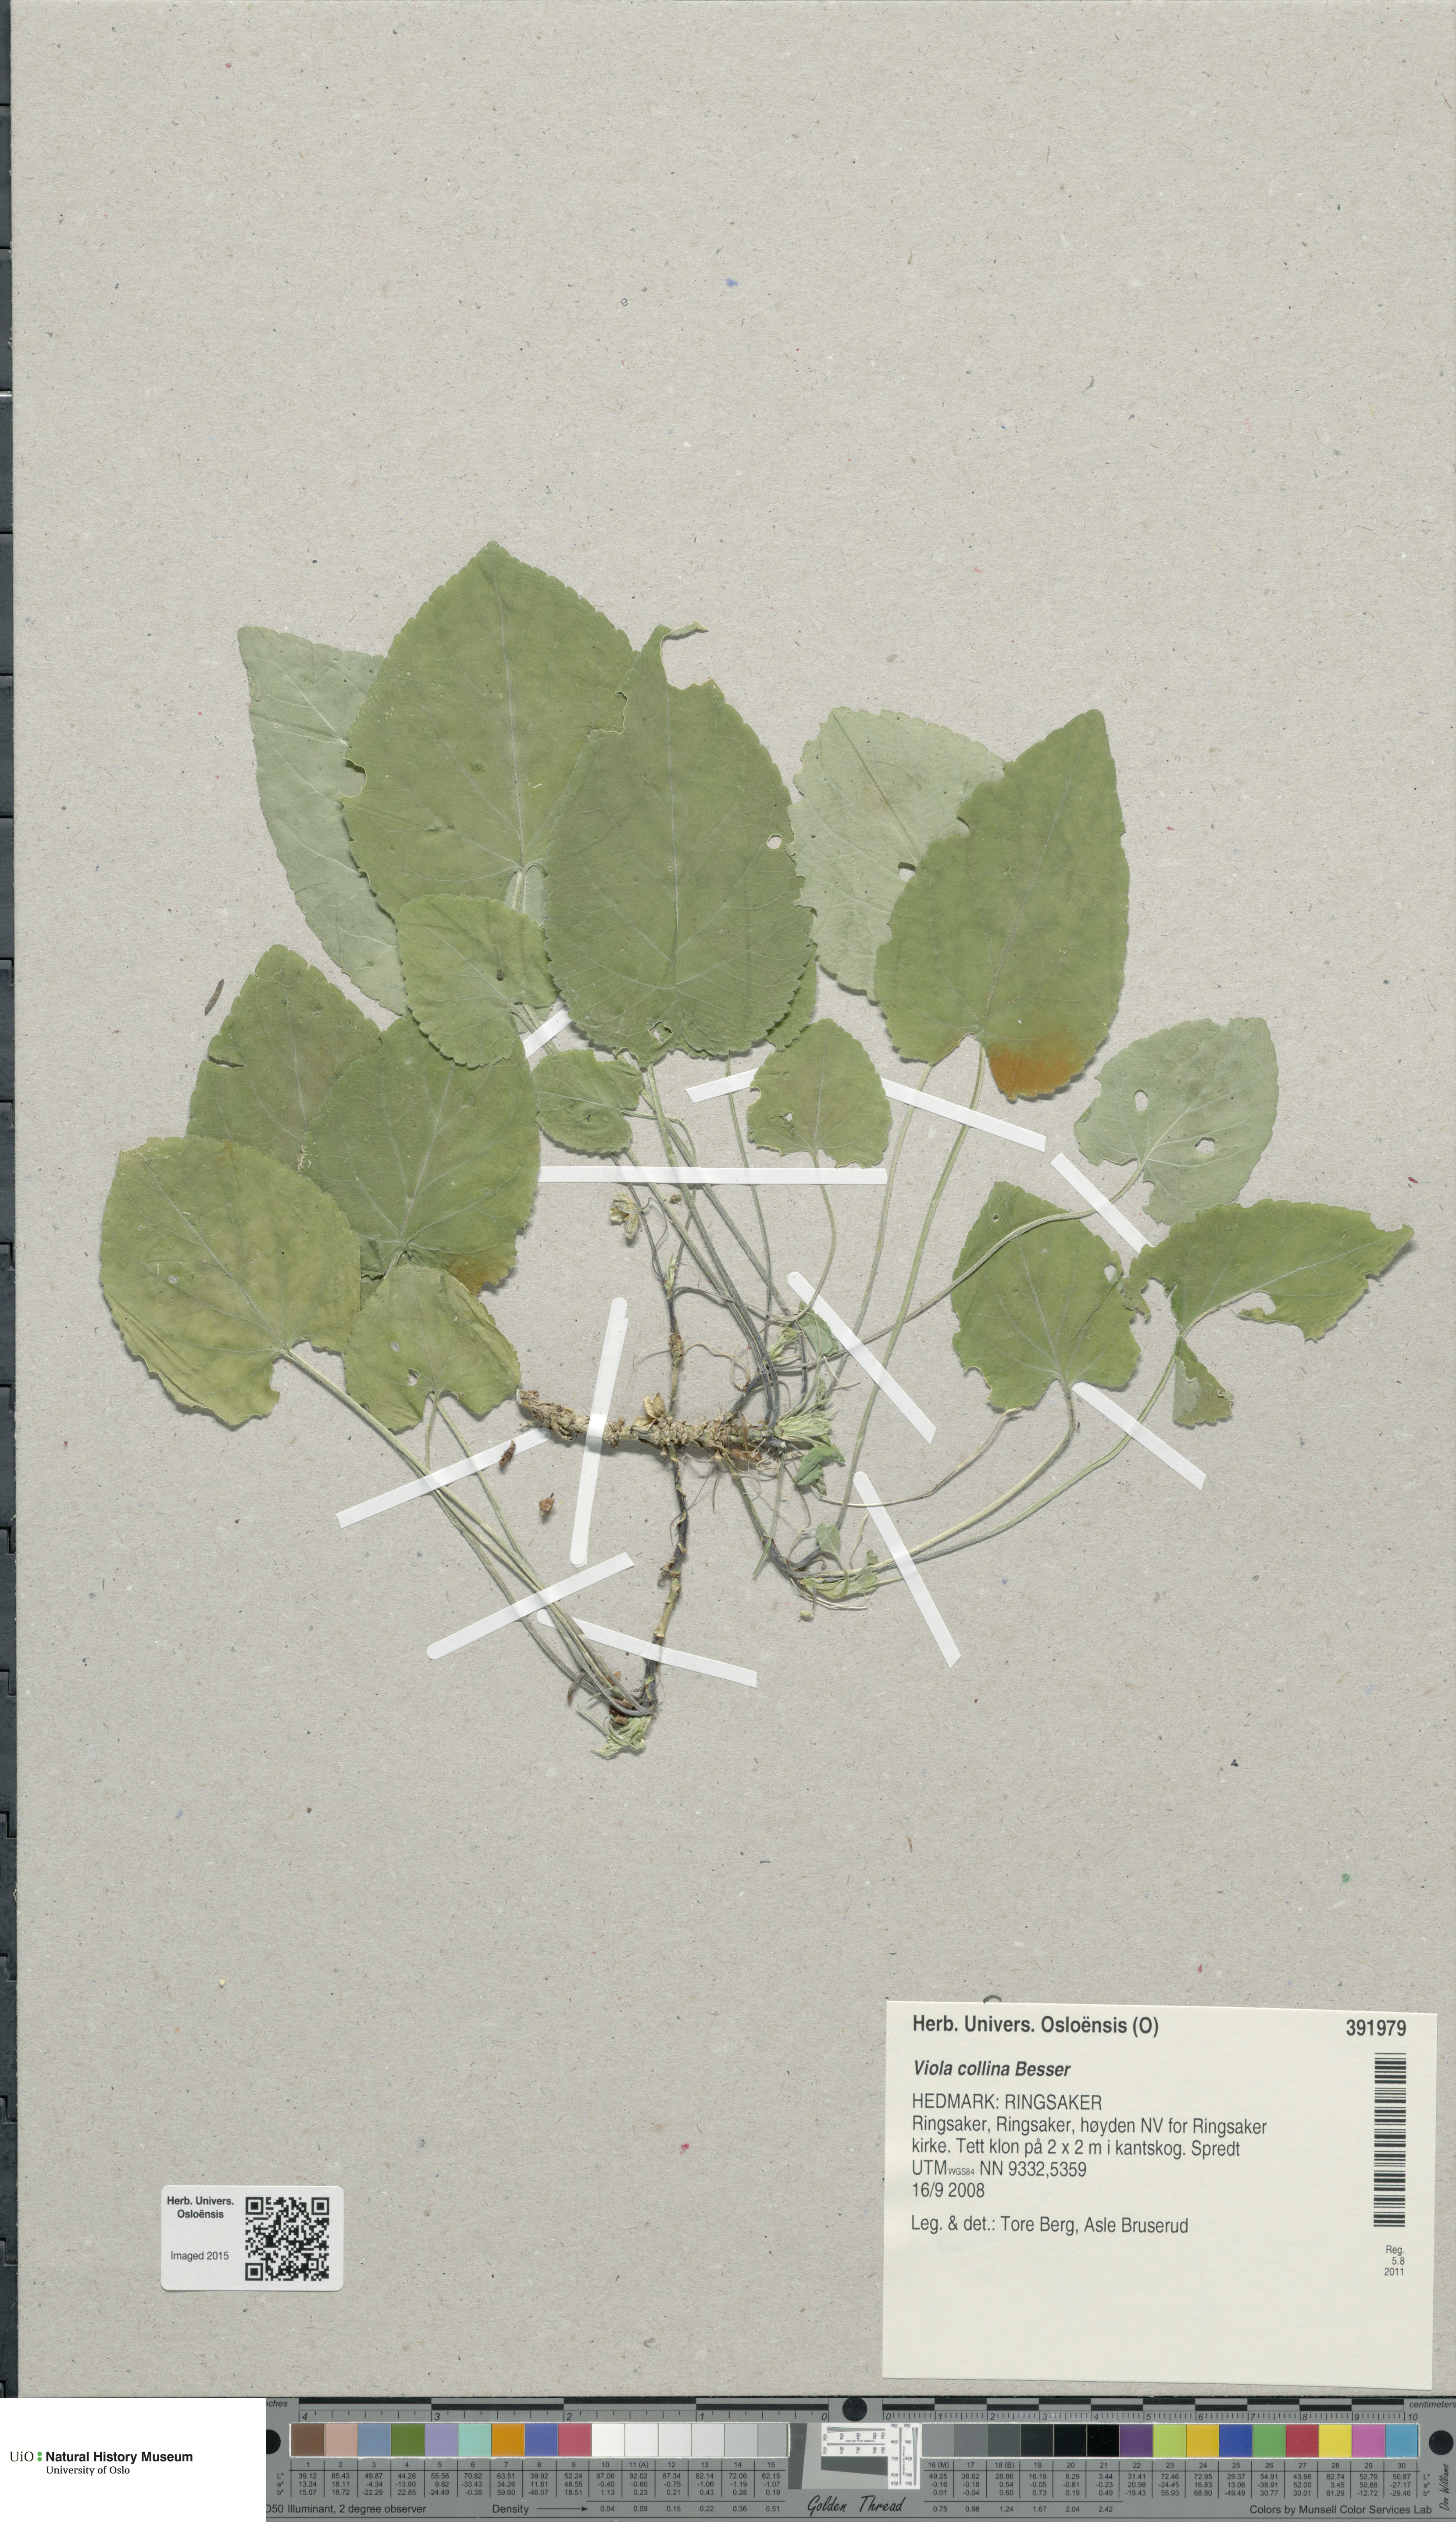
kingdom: Plantae
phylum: Tracheophyta
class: Magnoliopsida
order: Malpighiales
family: Violaceae
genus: Viola
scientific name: Viola collina
